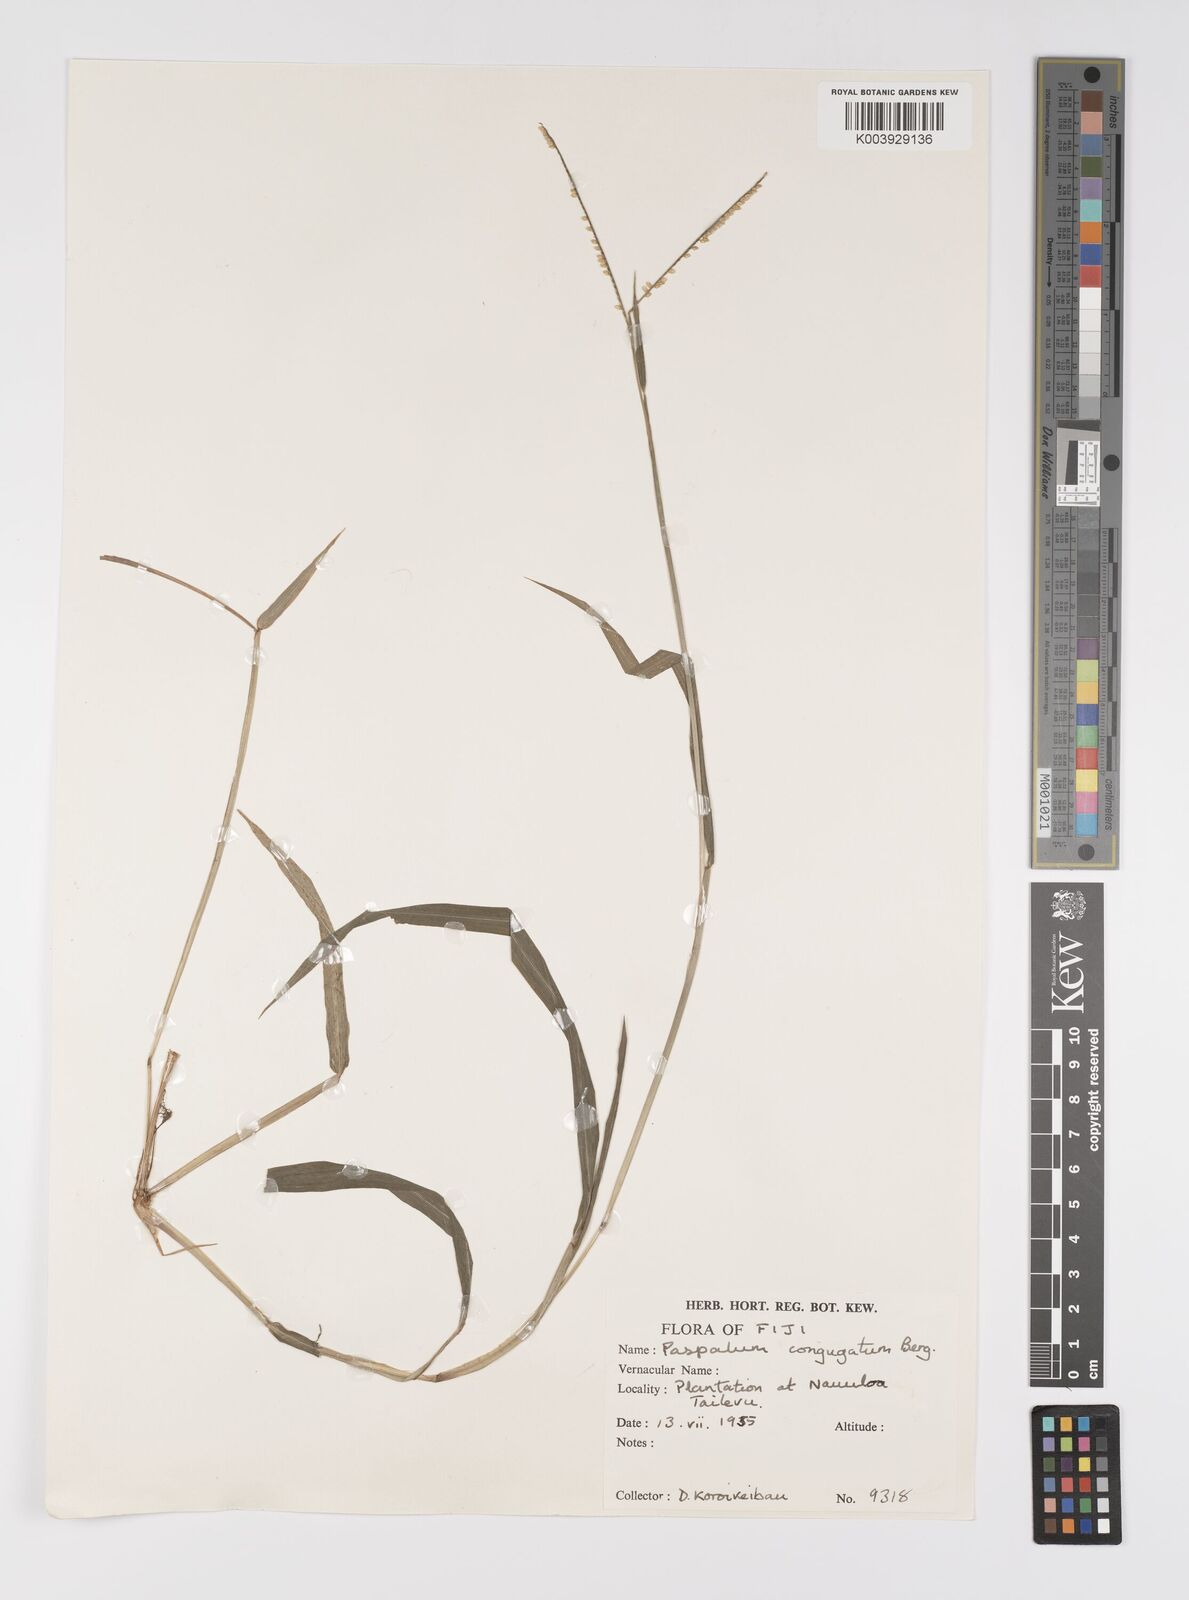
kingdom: Plantae
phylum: Tracheophyta
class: Liliopsida
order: Poales
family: Poaceae
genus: Paspalum
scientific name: Paspalum conjugatum
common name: Hilograss
